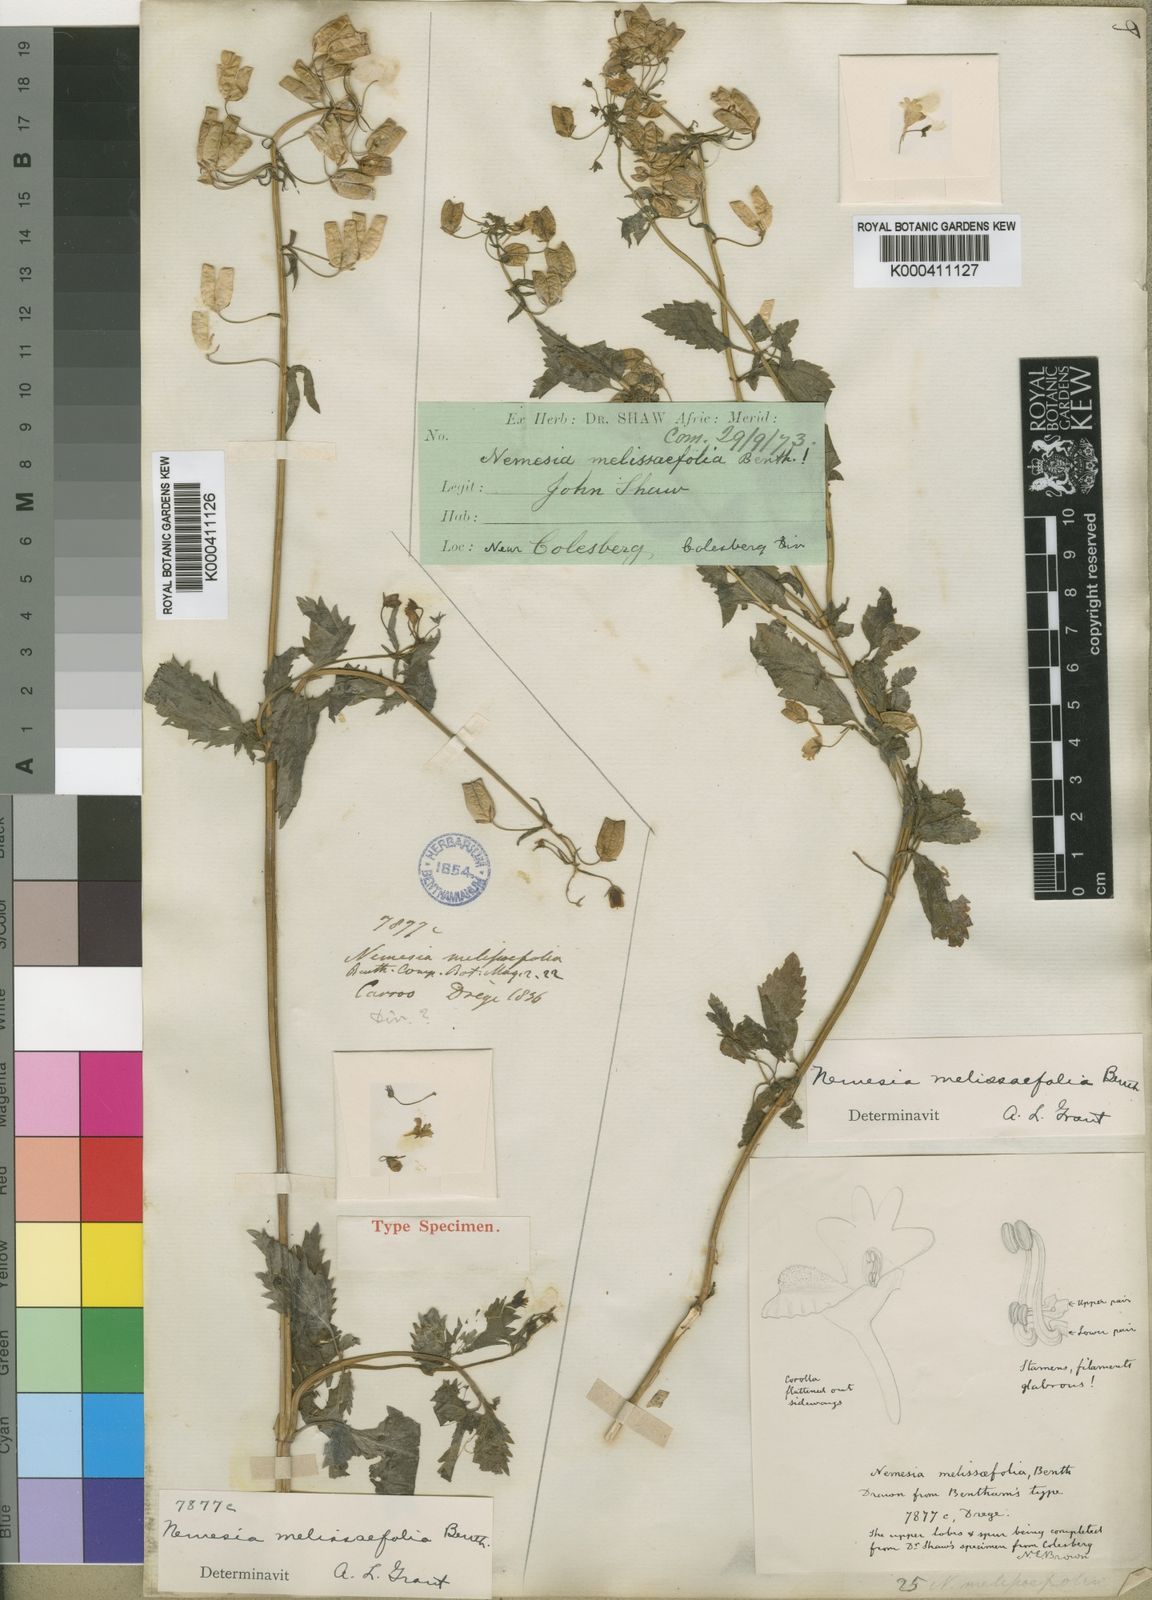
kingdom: Plantae
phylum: Tracheophyta
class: Magnoliopsida
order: Lamiales
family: Scrophulariaceae
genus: Nemesia
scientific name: Nemesia melissifolia
